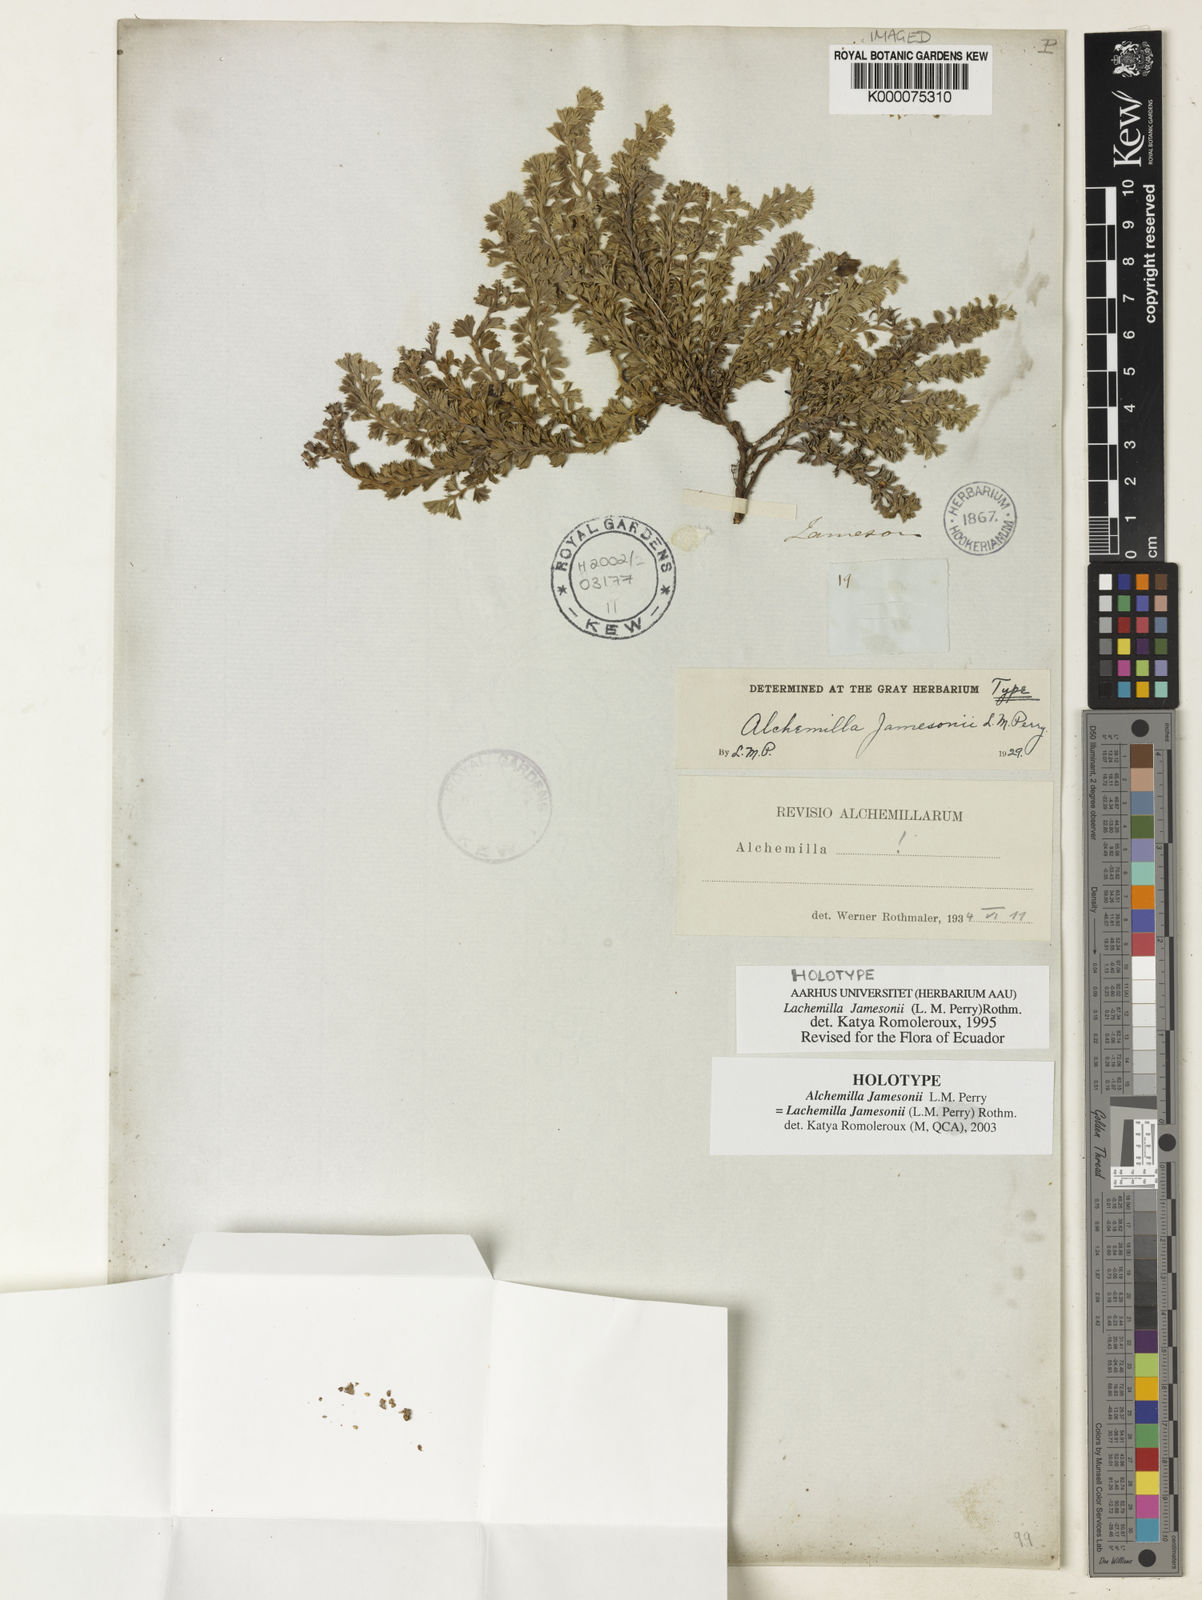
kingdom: Plantae
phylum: Tracheophyta
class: Magnoliopsida
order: Rosales
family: Rosaceae
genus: Lachemilla
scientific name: Lachemilla jamesonii
